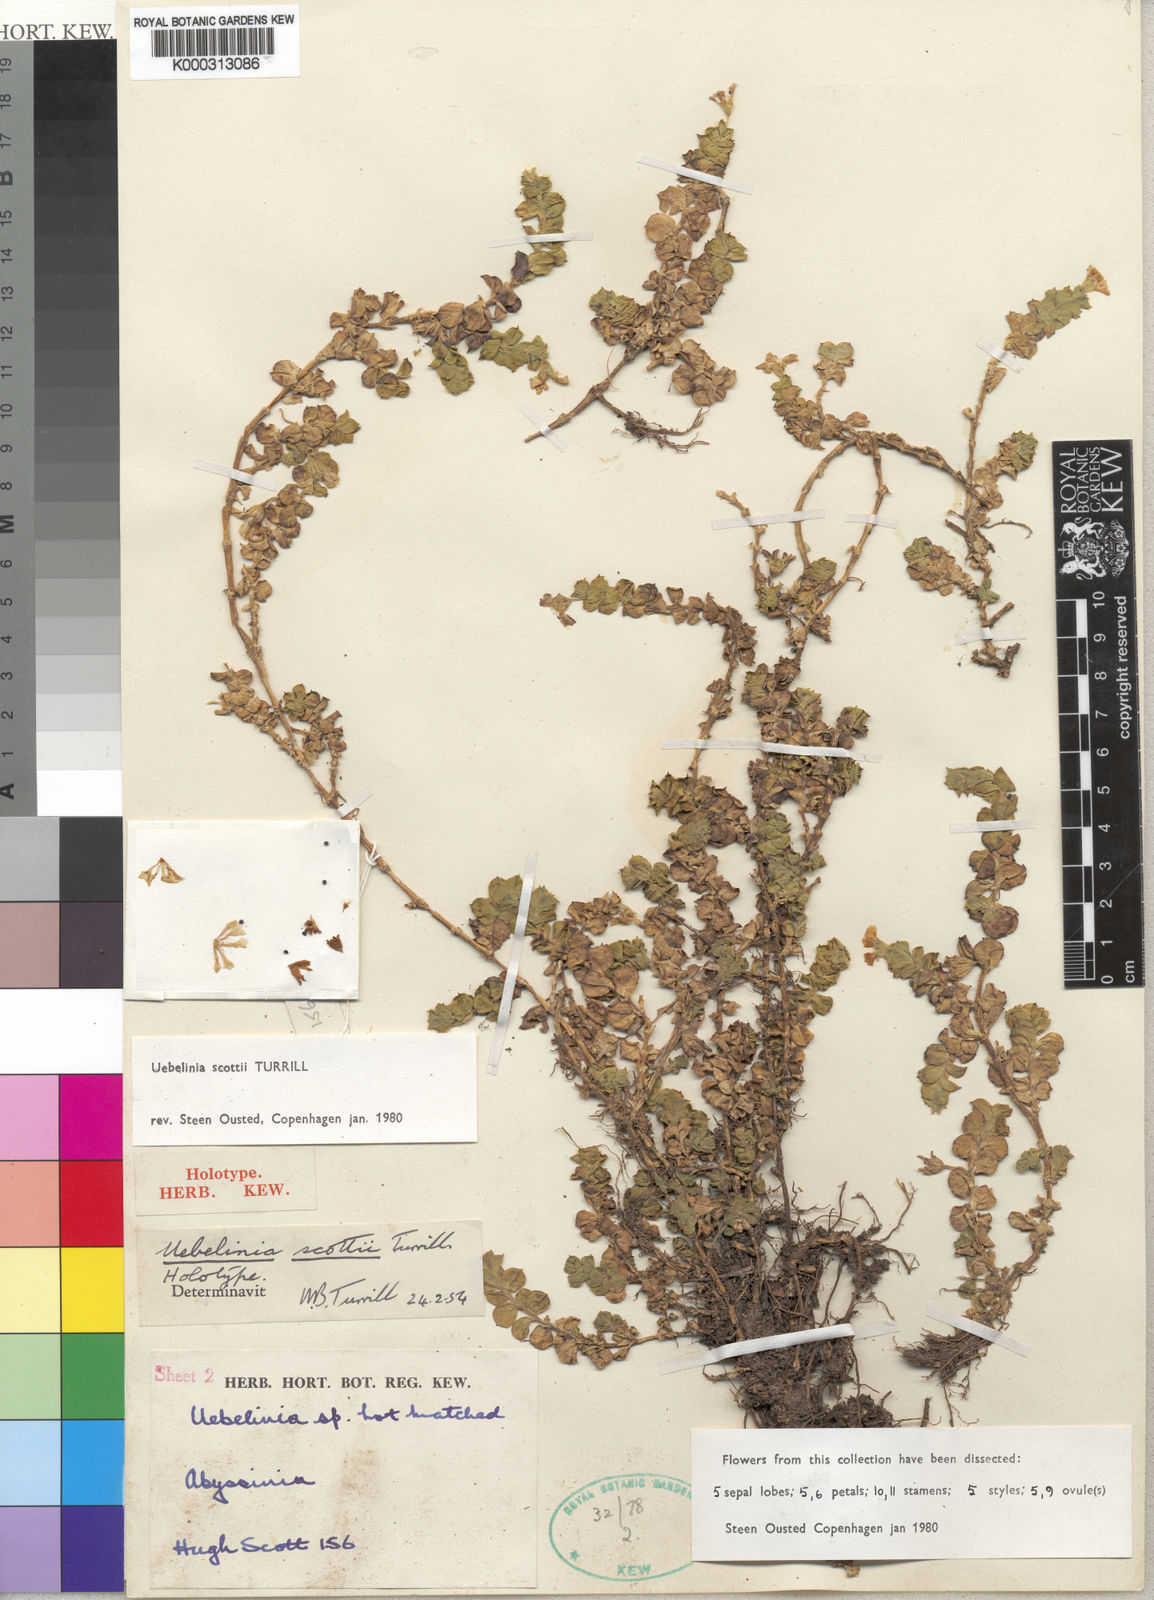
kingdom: Plantae
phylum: Tracheophyta
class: Magnoliopsida
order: Caryophyllales
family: Caryophyllaceae
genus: Silene
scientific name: Silene abyssinica
